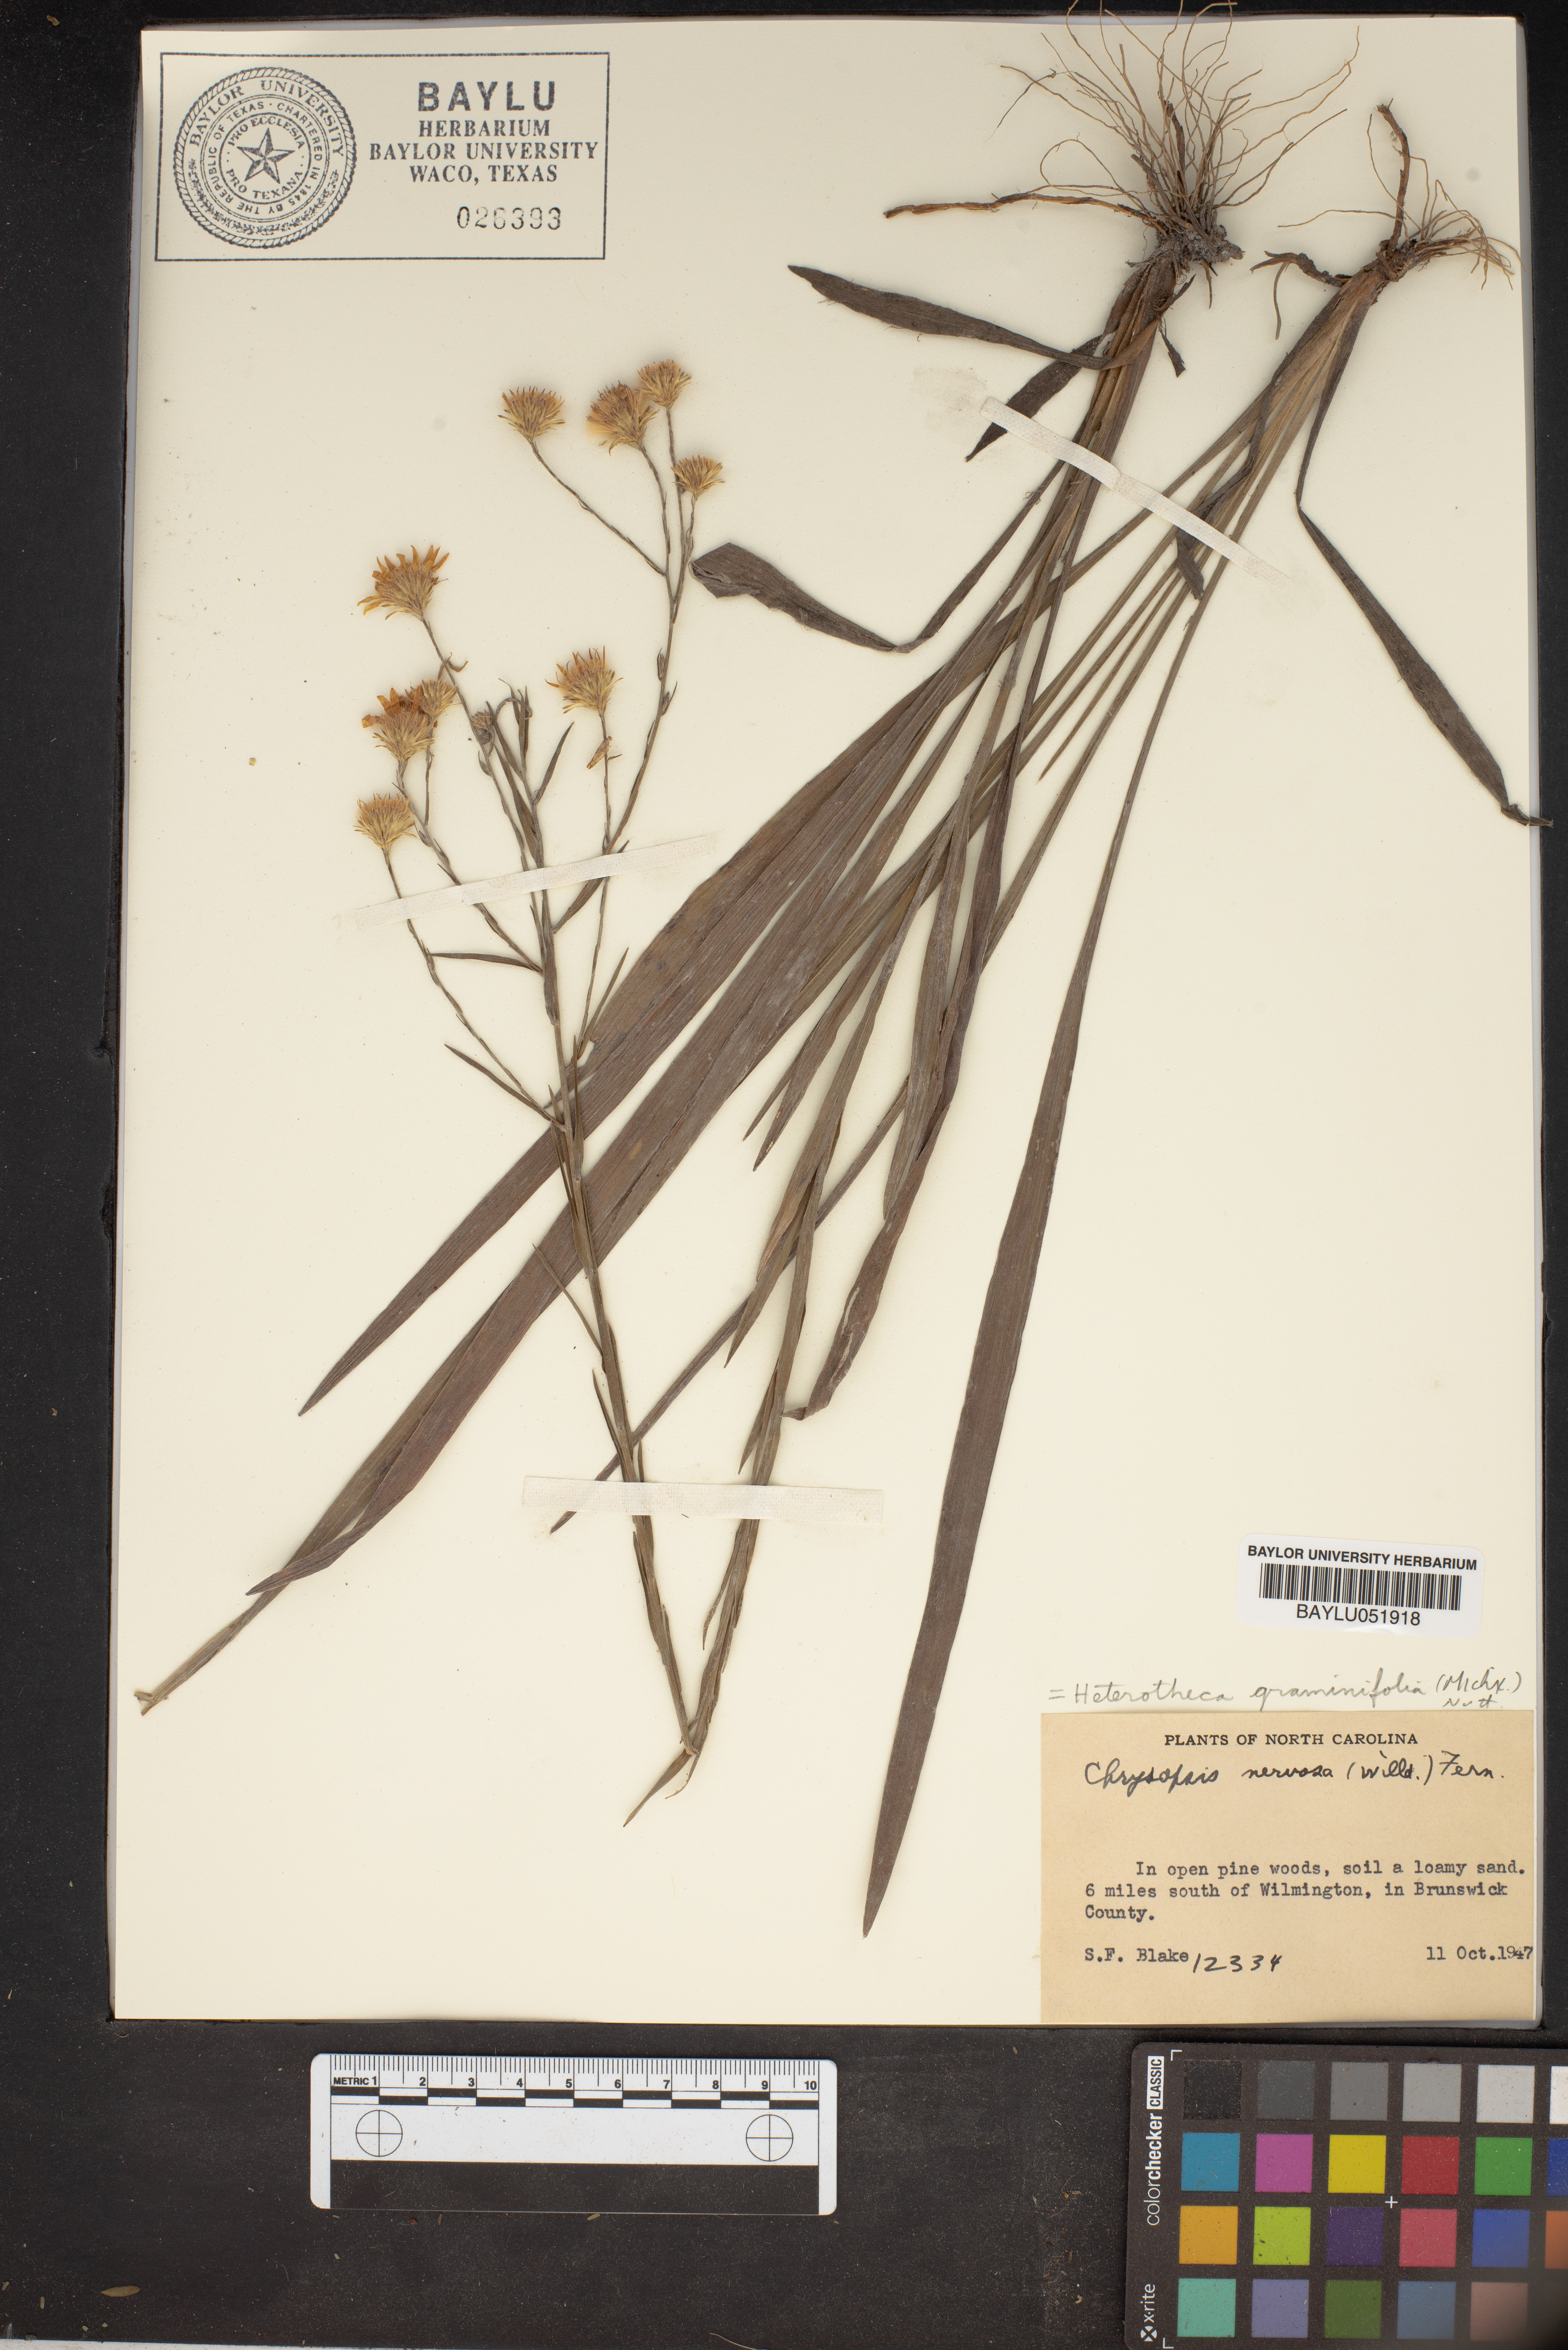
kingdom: Plantae
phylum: Tracheophyta
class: Magnoliopsida
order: Asterales
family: Asteraceae
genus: Pityopsis
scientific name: Pityopsis graminifolia
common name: Grass-leaf golden-aster
